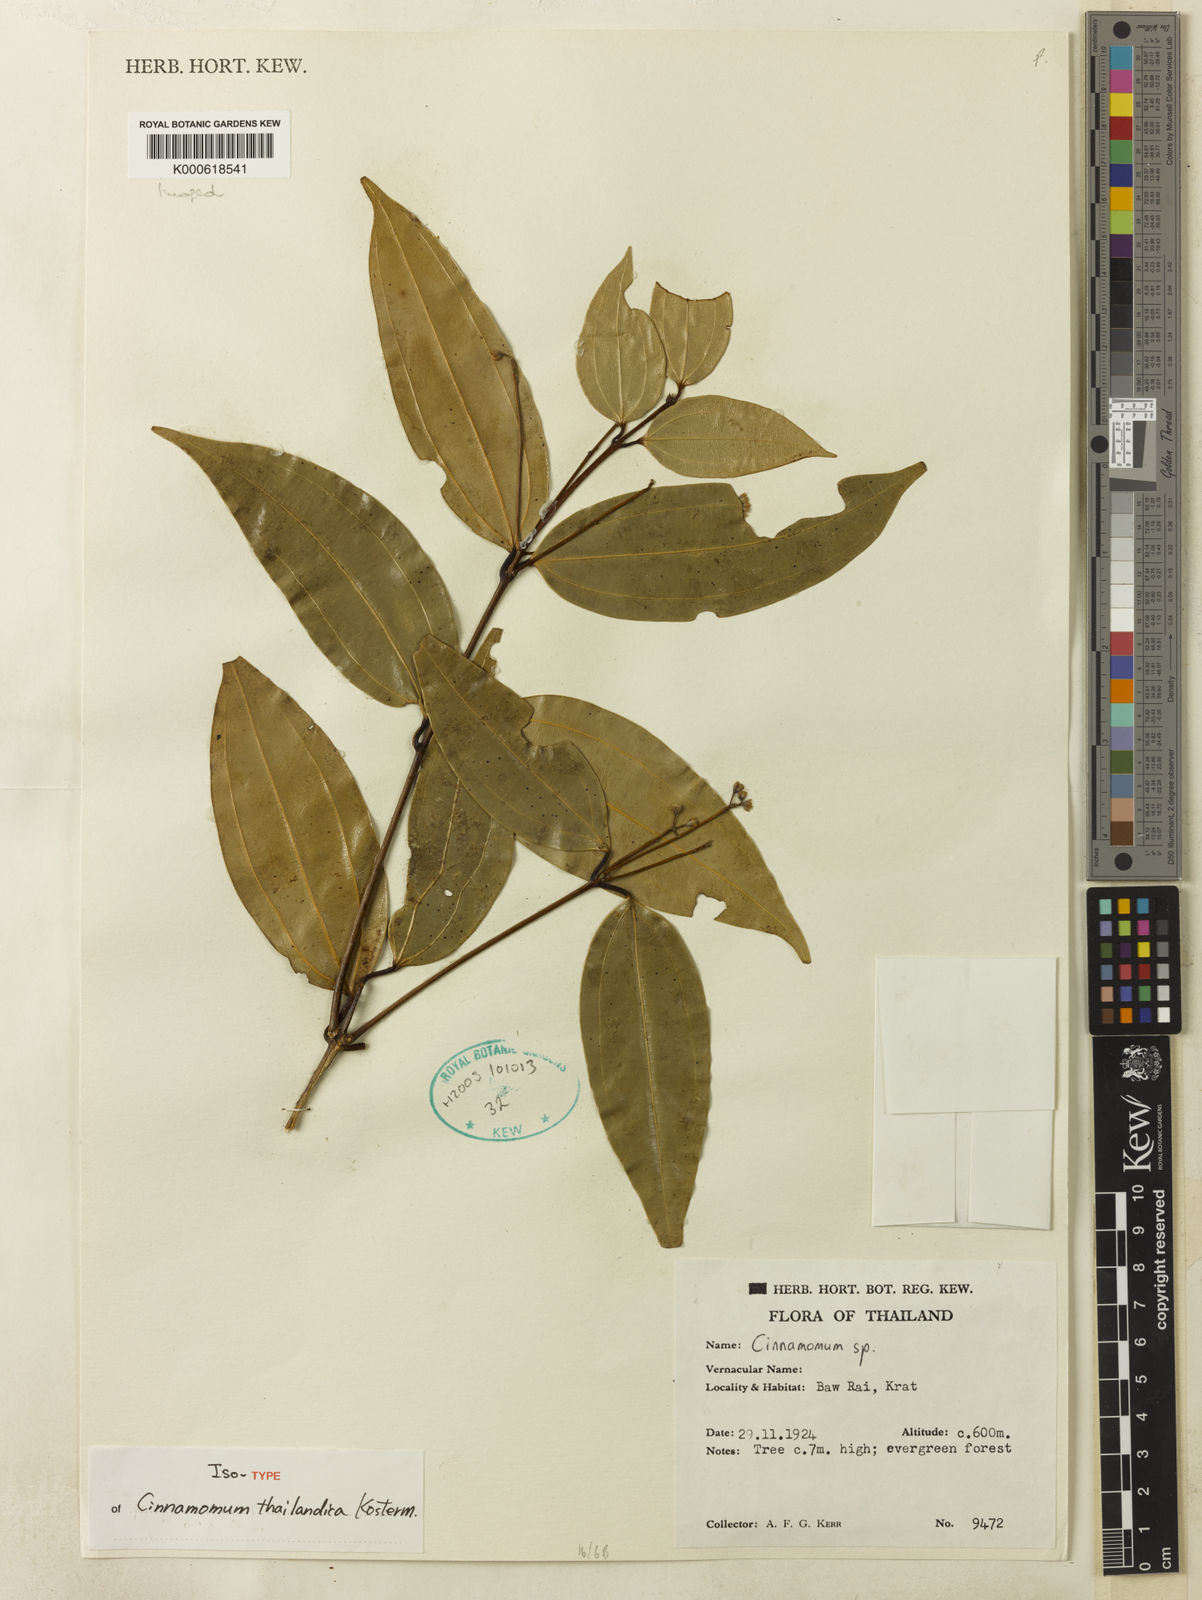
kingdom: Plantae
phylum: Tracheophyta
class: Magnoliopsida
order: Laurales
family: Lauraceae
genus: Cinnamomum
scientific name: Cinnamomum
